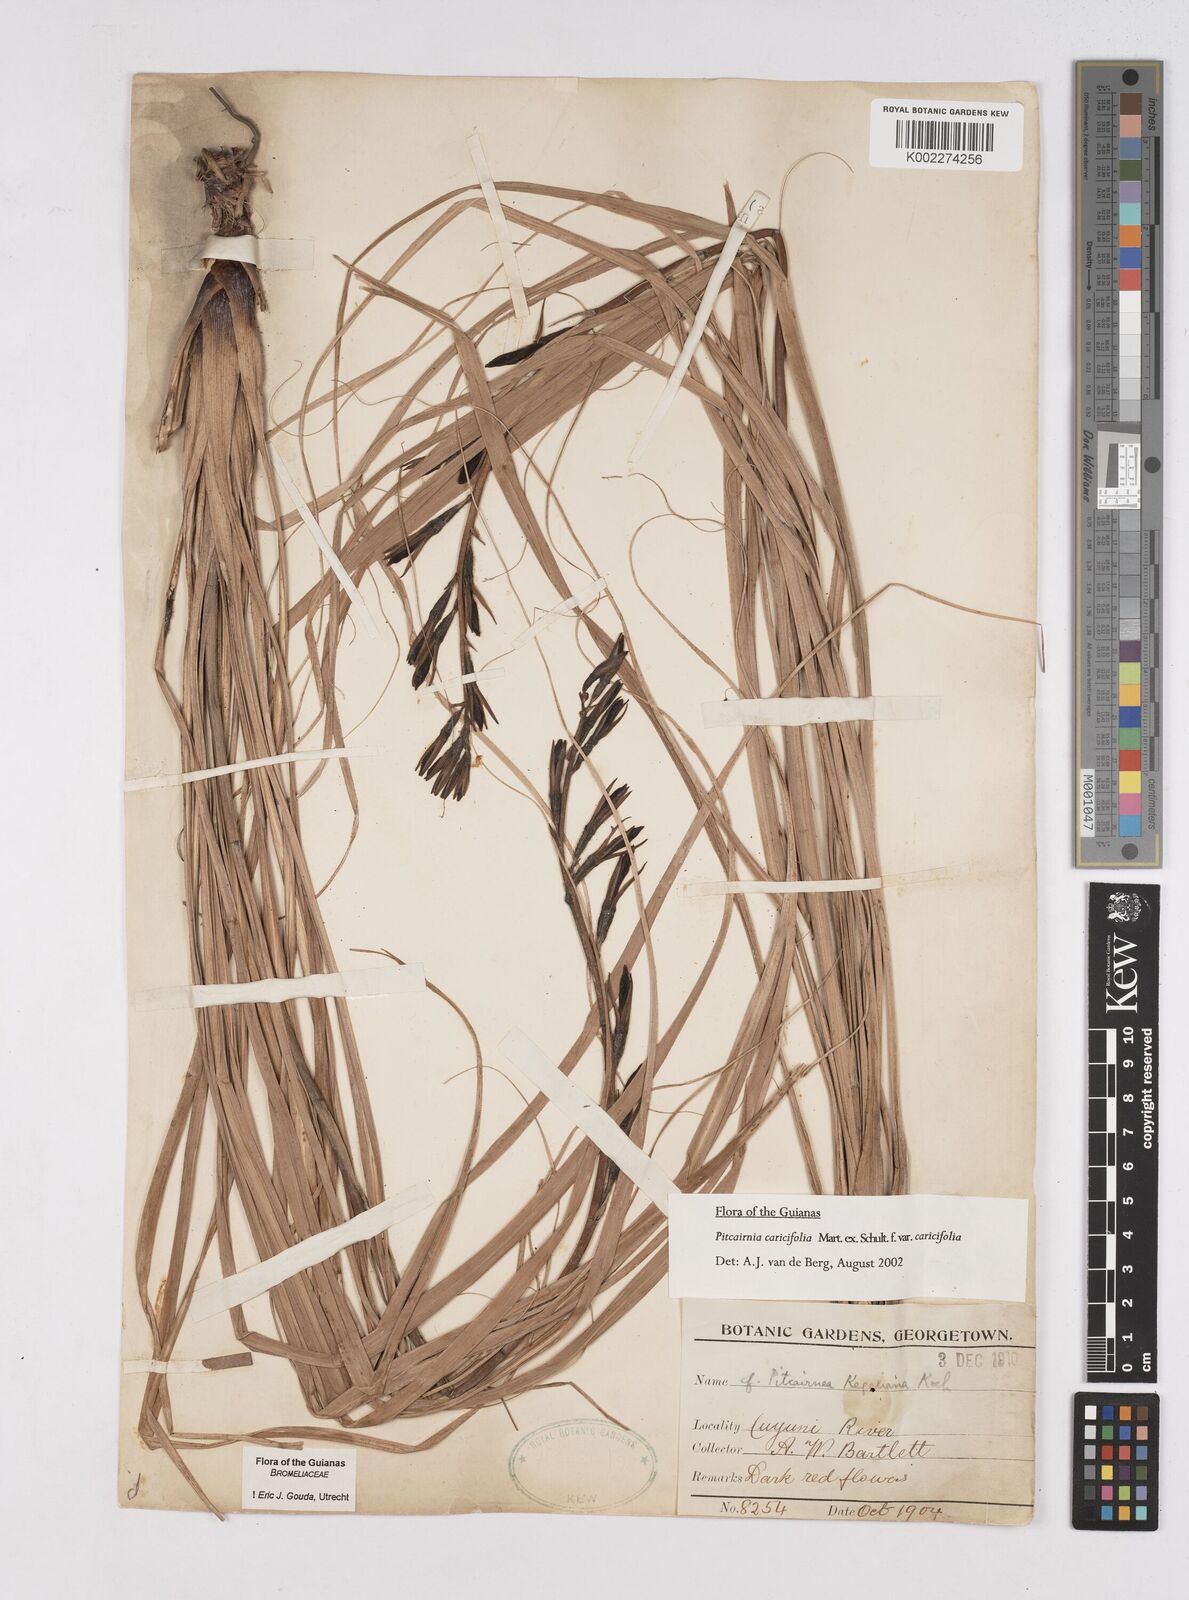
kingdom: Plantae
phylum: Tracheophyta
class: Liliopsida
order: Poales
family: Bromeliaceae
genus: Pitcairnia
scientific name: Pitcairnia caricifolia
